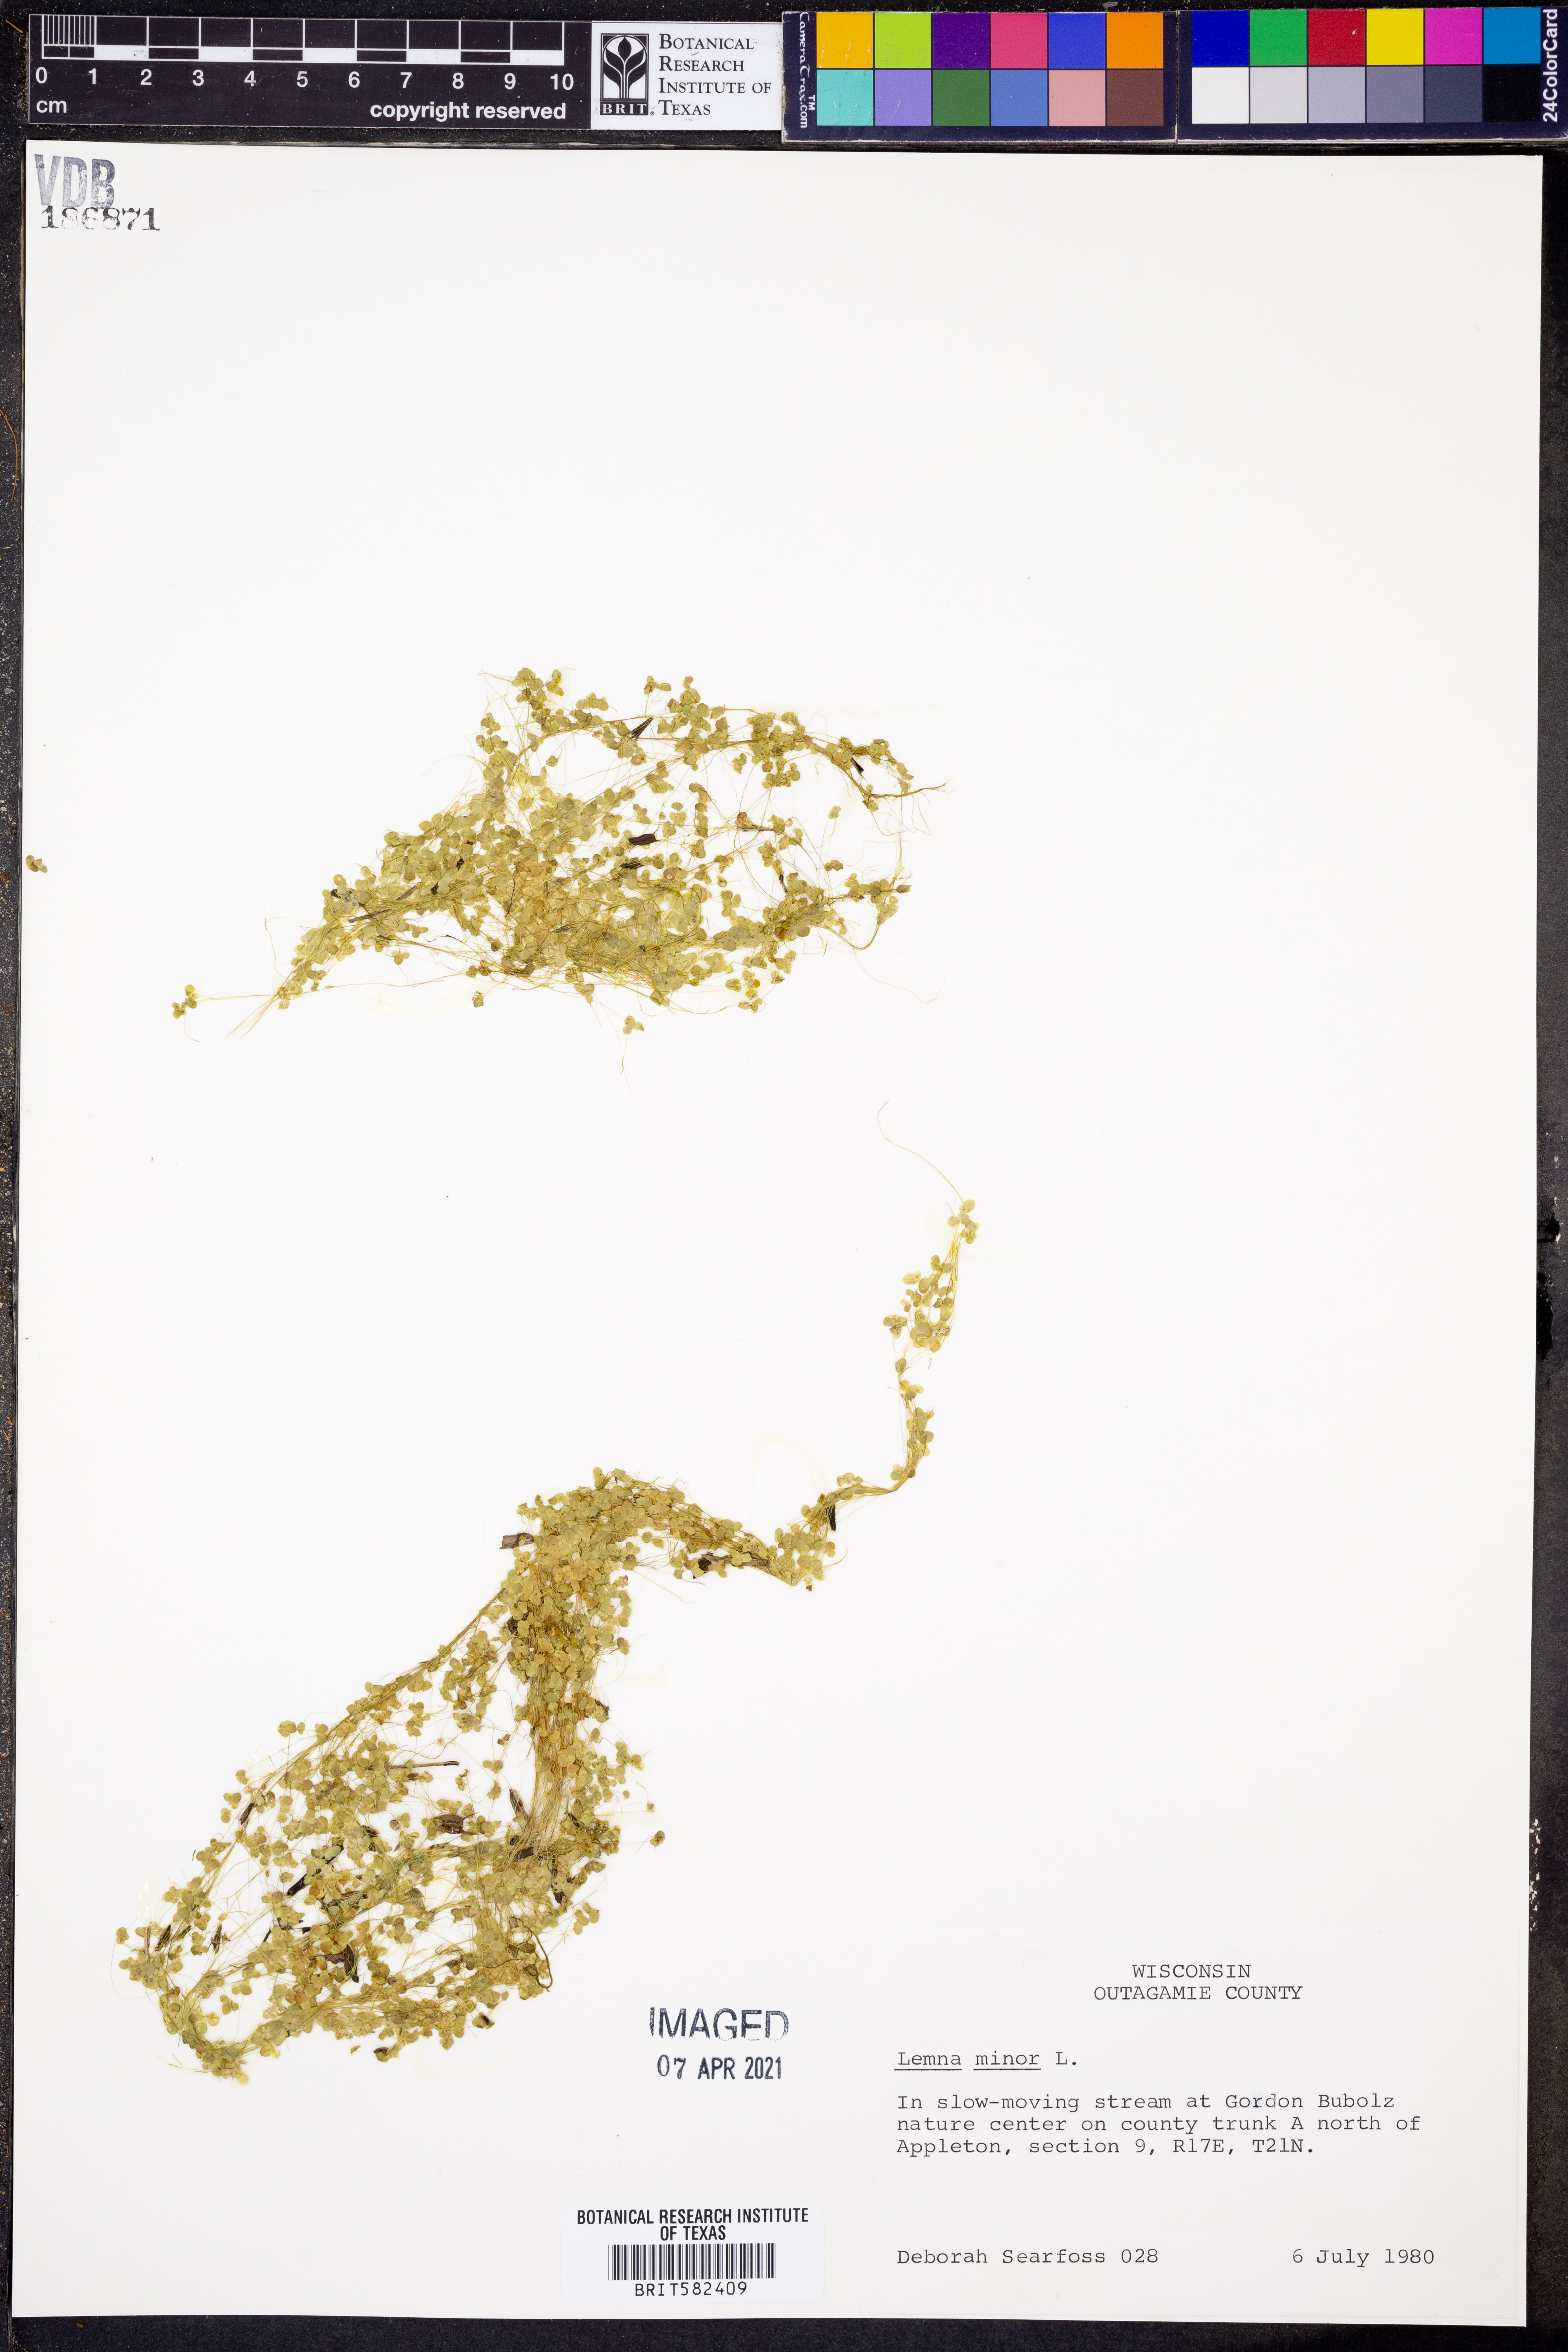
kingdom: Plantae
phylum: Tracheophyta
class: Liliopsida
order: Alismatales
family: Araceae
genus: Lemna
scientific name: Lemna minor
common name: Common duckweed
